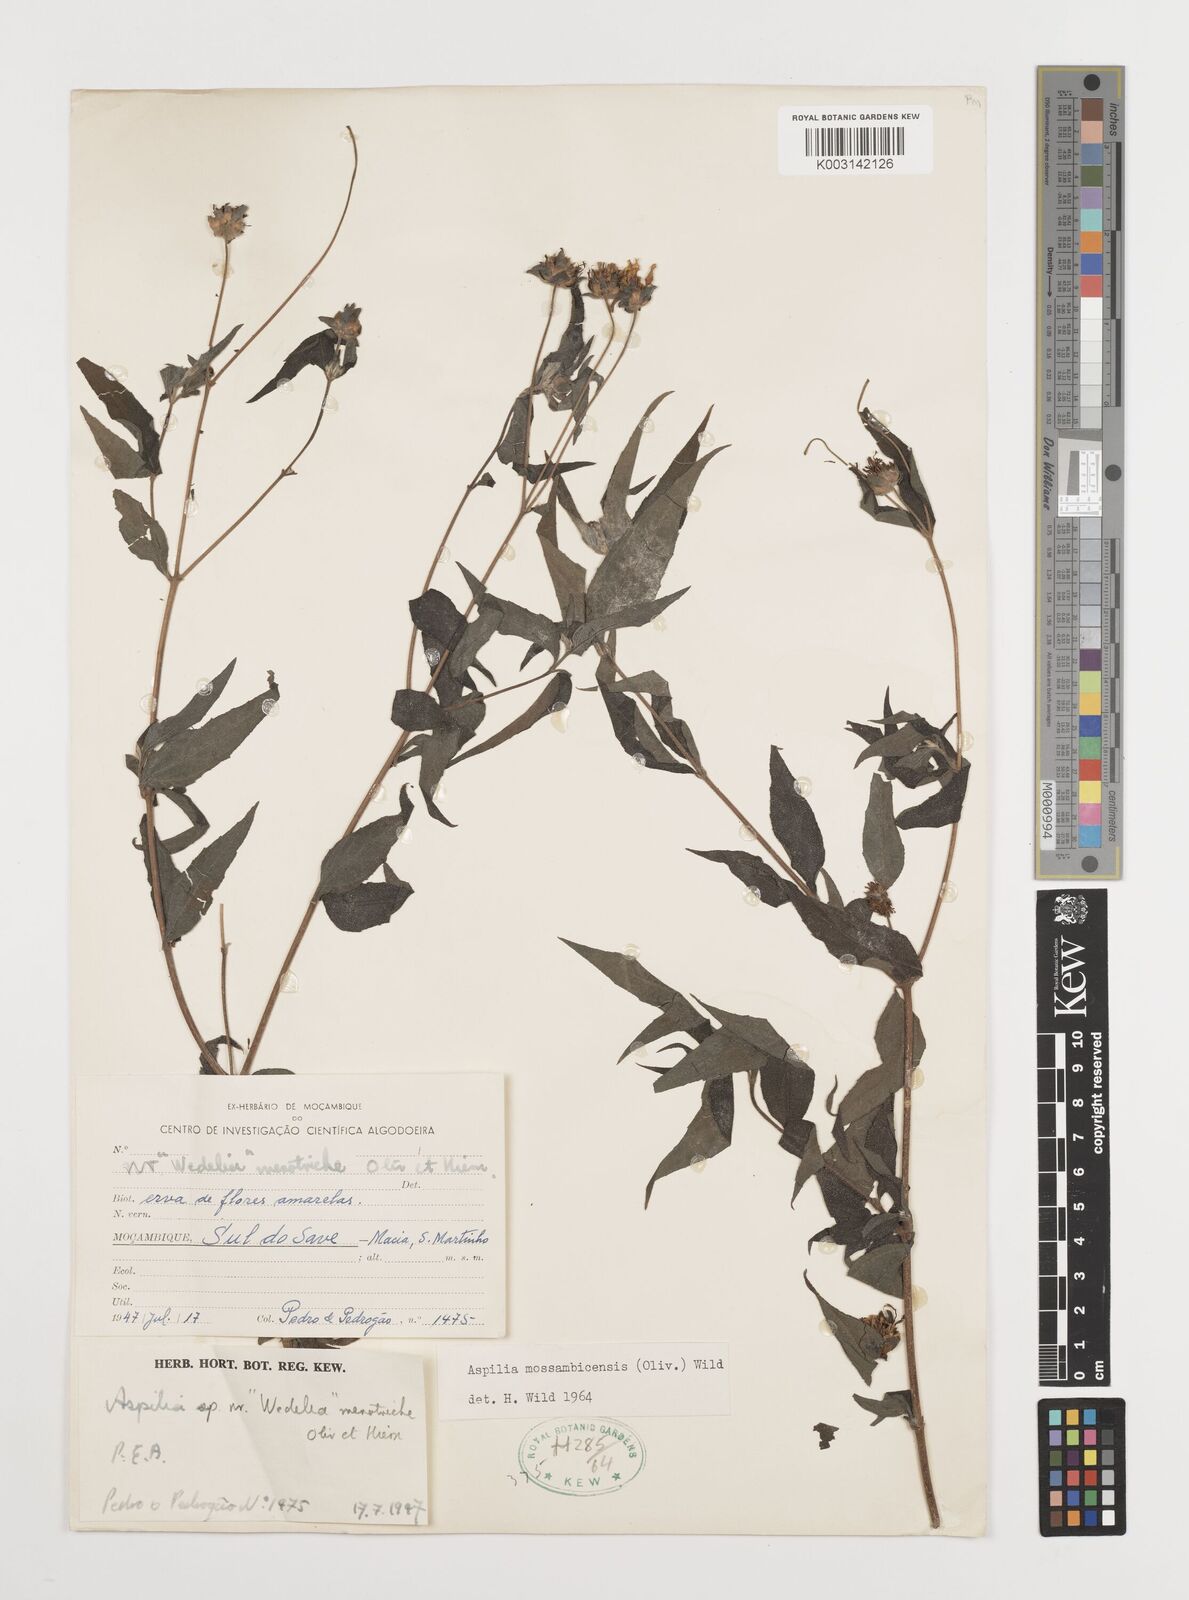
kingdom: Plantae
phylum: Tracheophyta
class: Magnoliopsida
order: Asterales
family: Asteraceae
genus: Aspilia
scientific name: Aspilia mossambicensis
